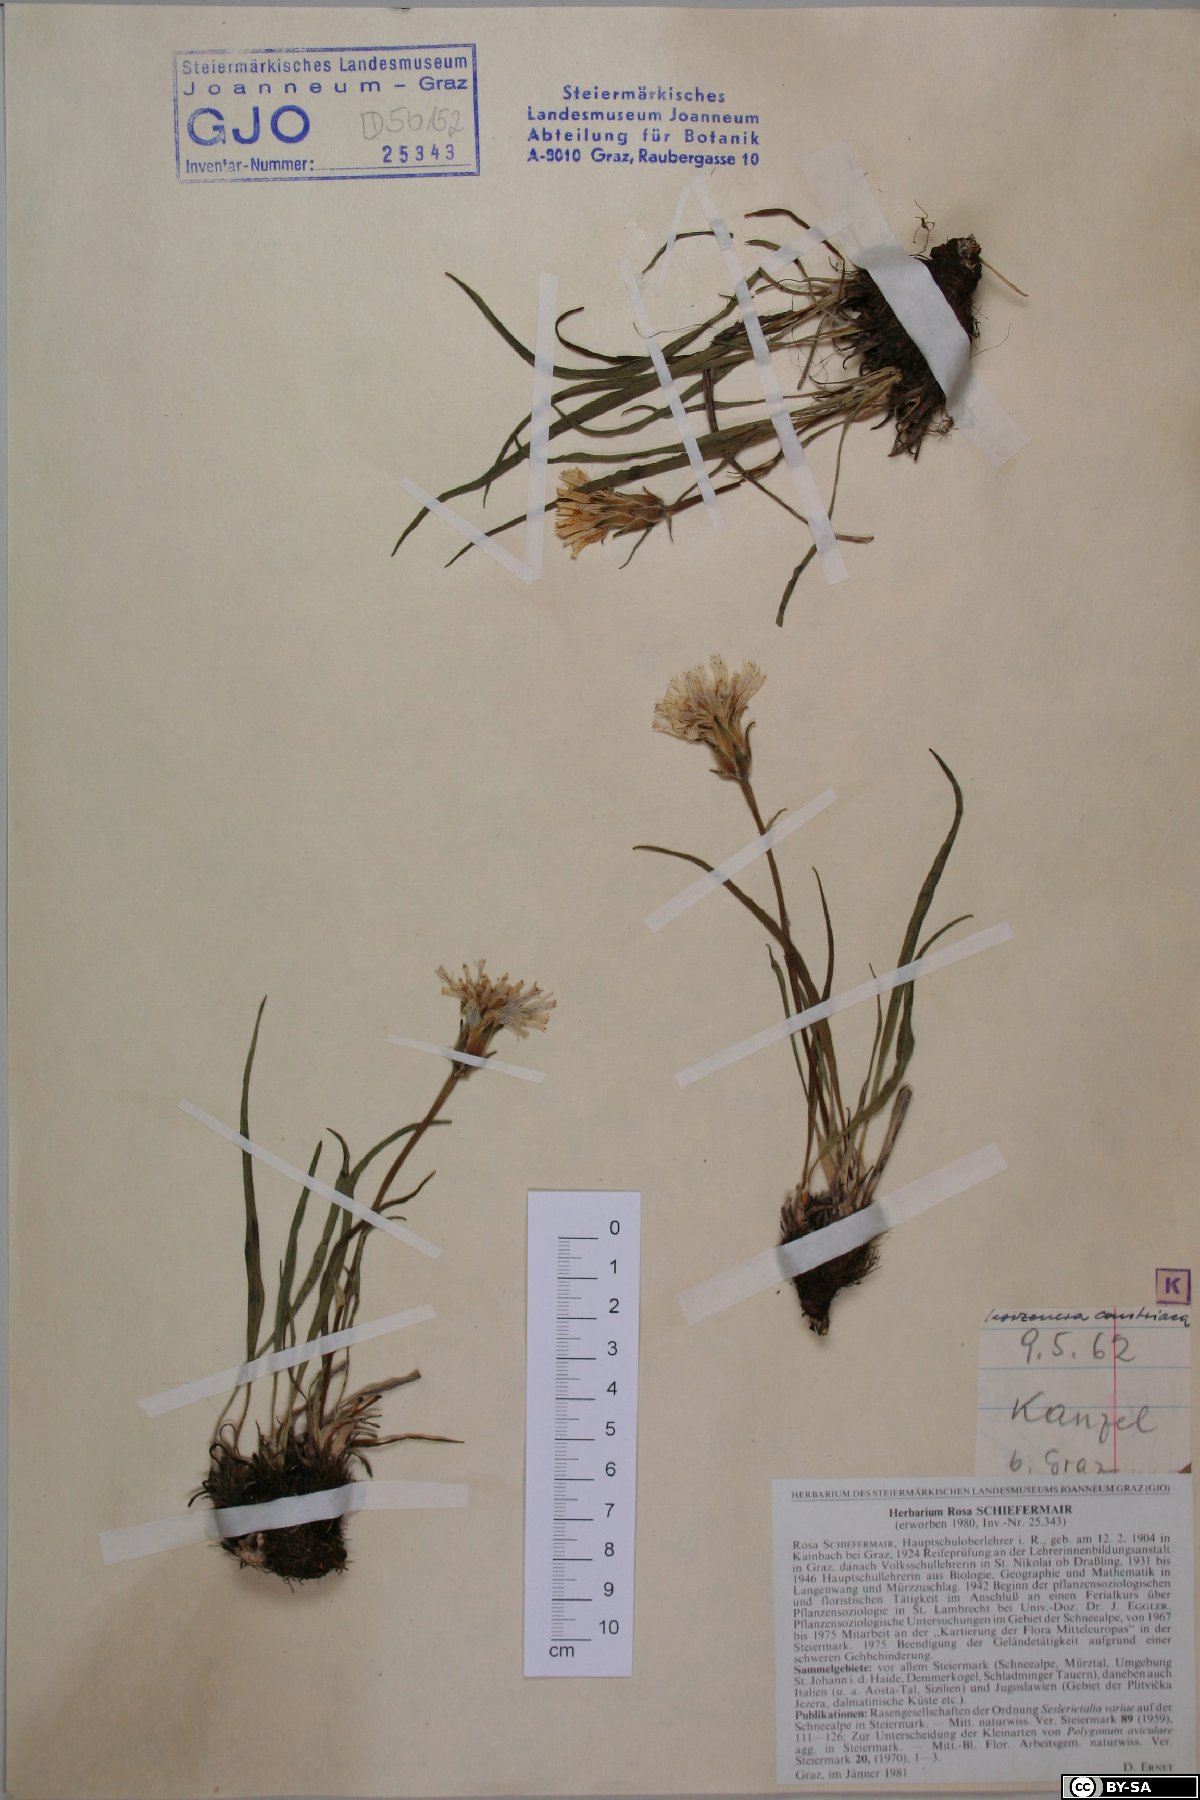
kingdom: Plantae
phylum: Tracheophyta
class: Magnoliopsida
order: Asterales
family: Asteraceae
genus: Takhtajaniantha
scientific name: Takhtajaniantha austriaca
